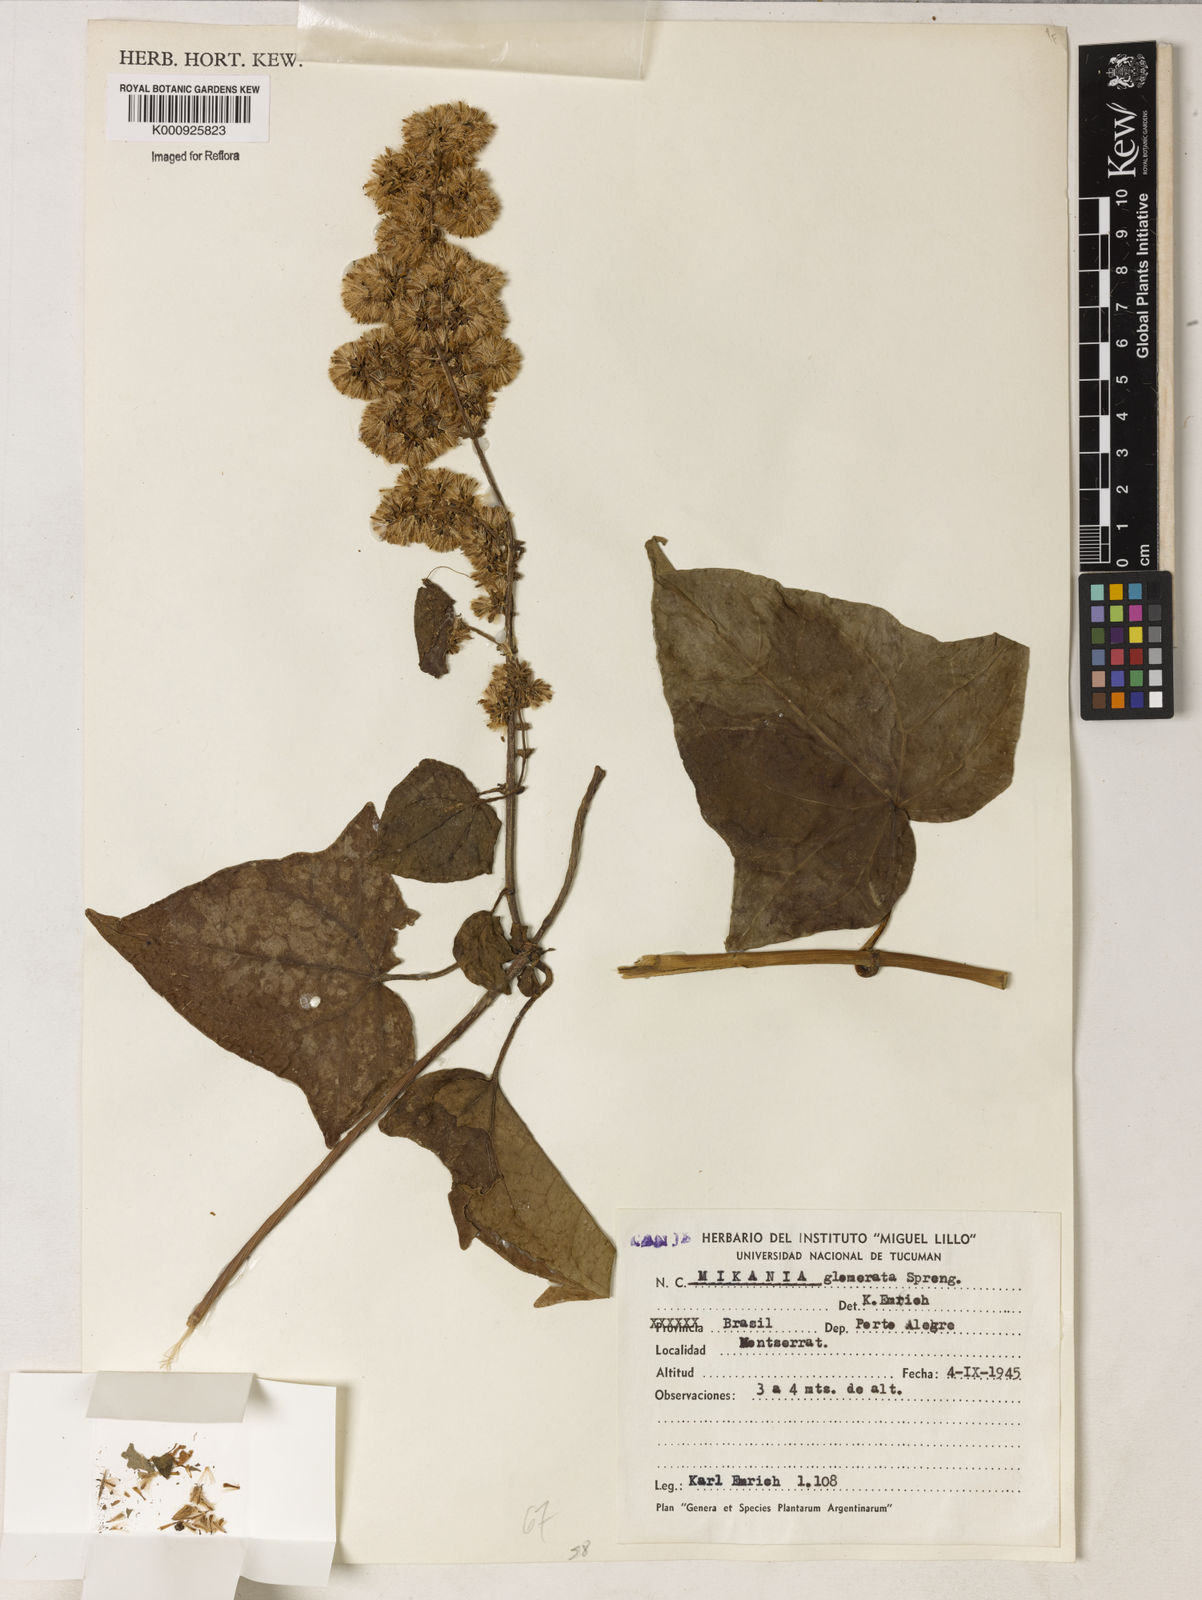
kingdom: Plantae
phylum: Tracheophyta
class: Magnoliopsida
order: Asterales
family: Asteraceae
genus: Mikania
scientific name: Mikania glomerata
